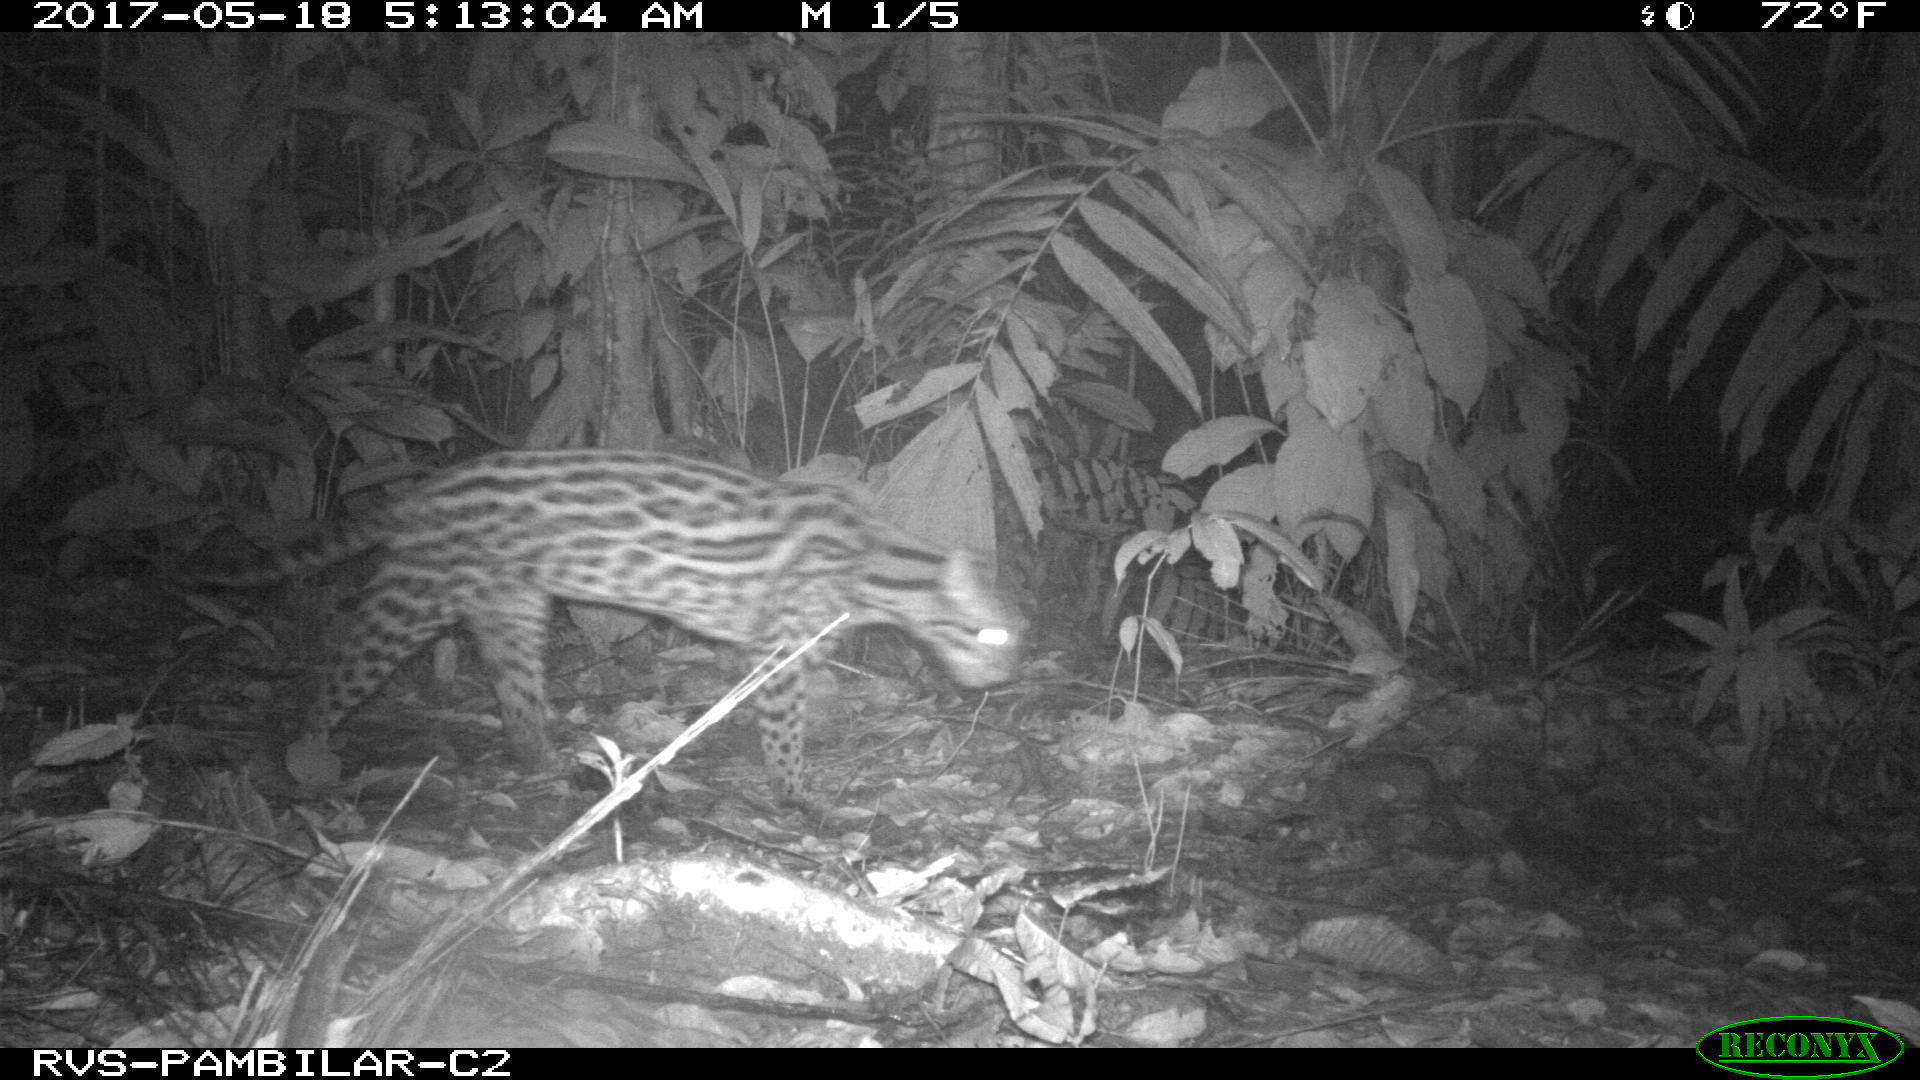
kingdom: Animalia
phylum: Chordata
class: Mammalia
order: Carnivora
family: Felidae
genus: Leopardus
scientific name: Leopardus pardalis
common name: Ocelot
